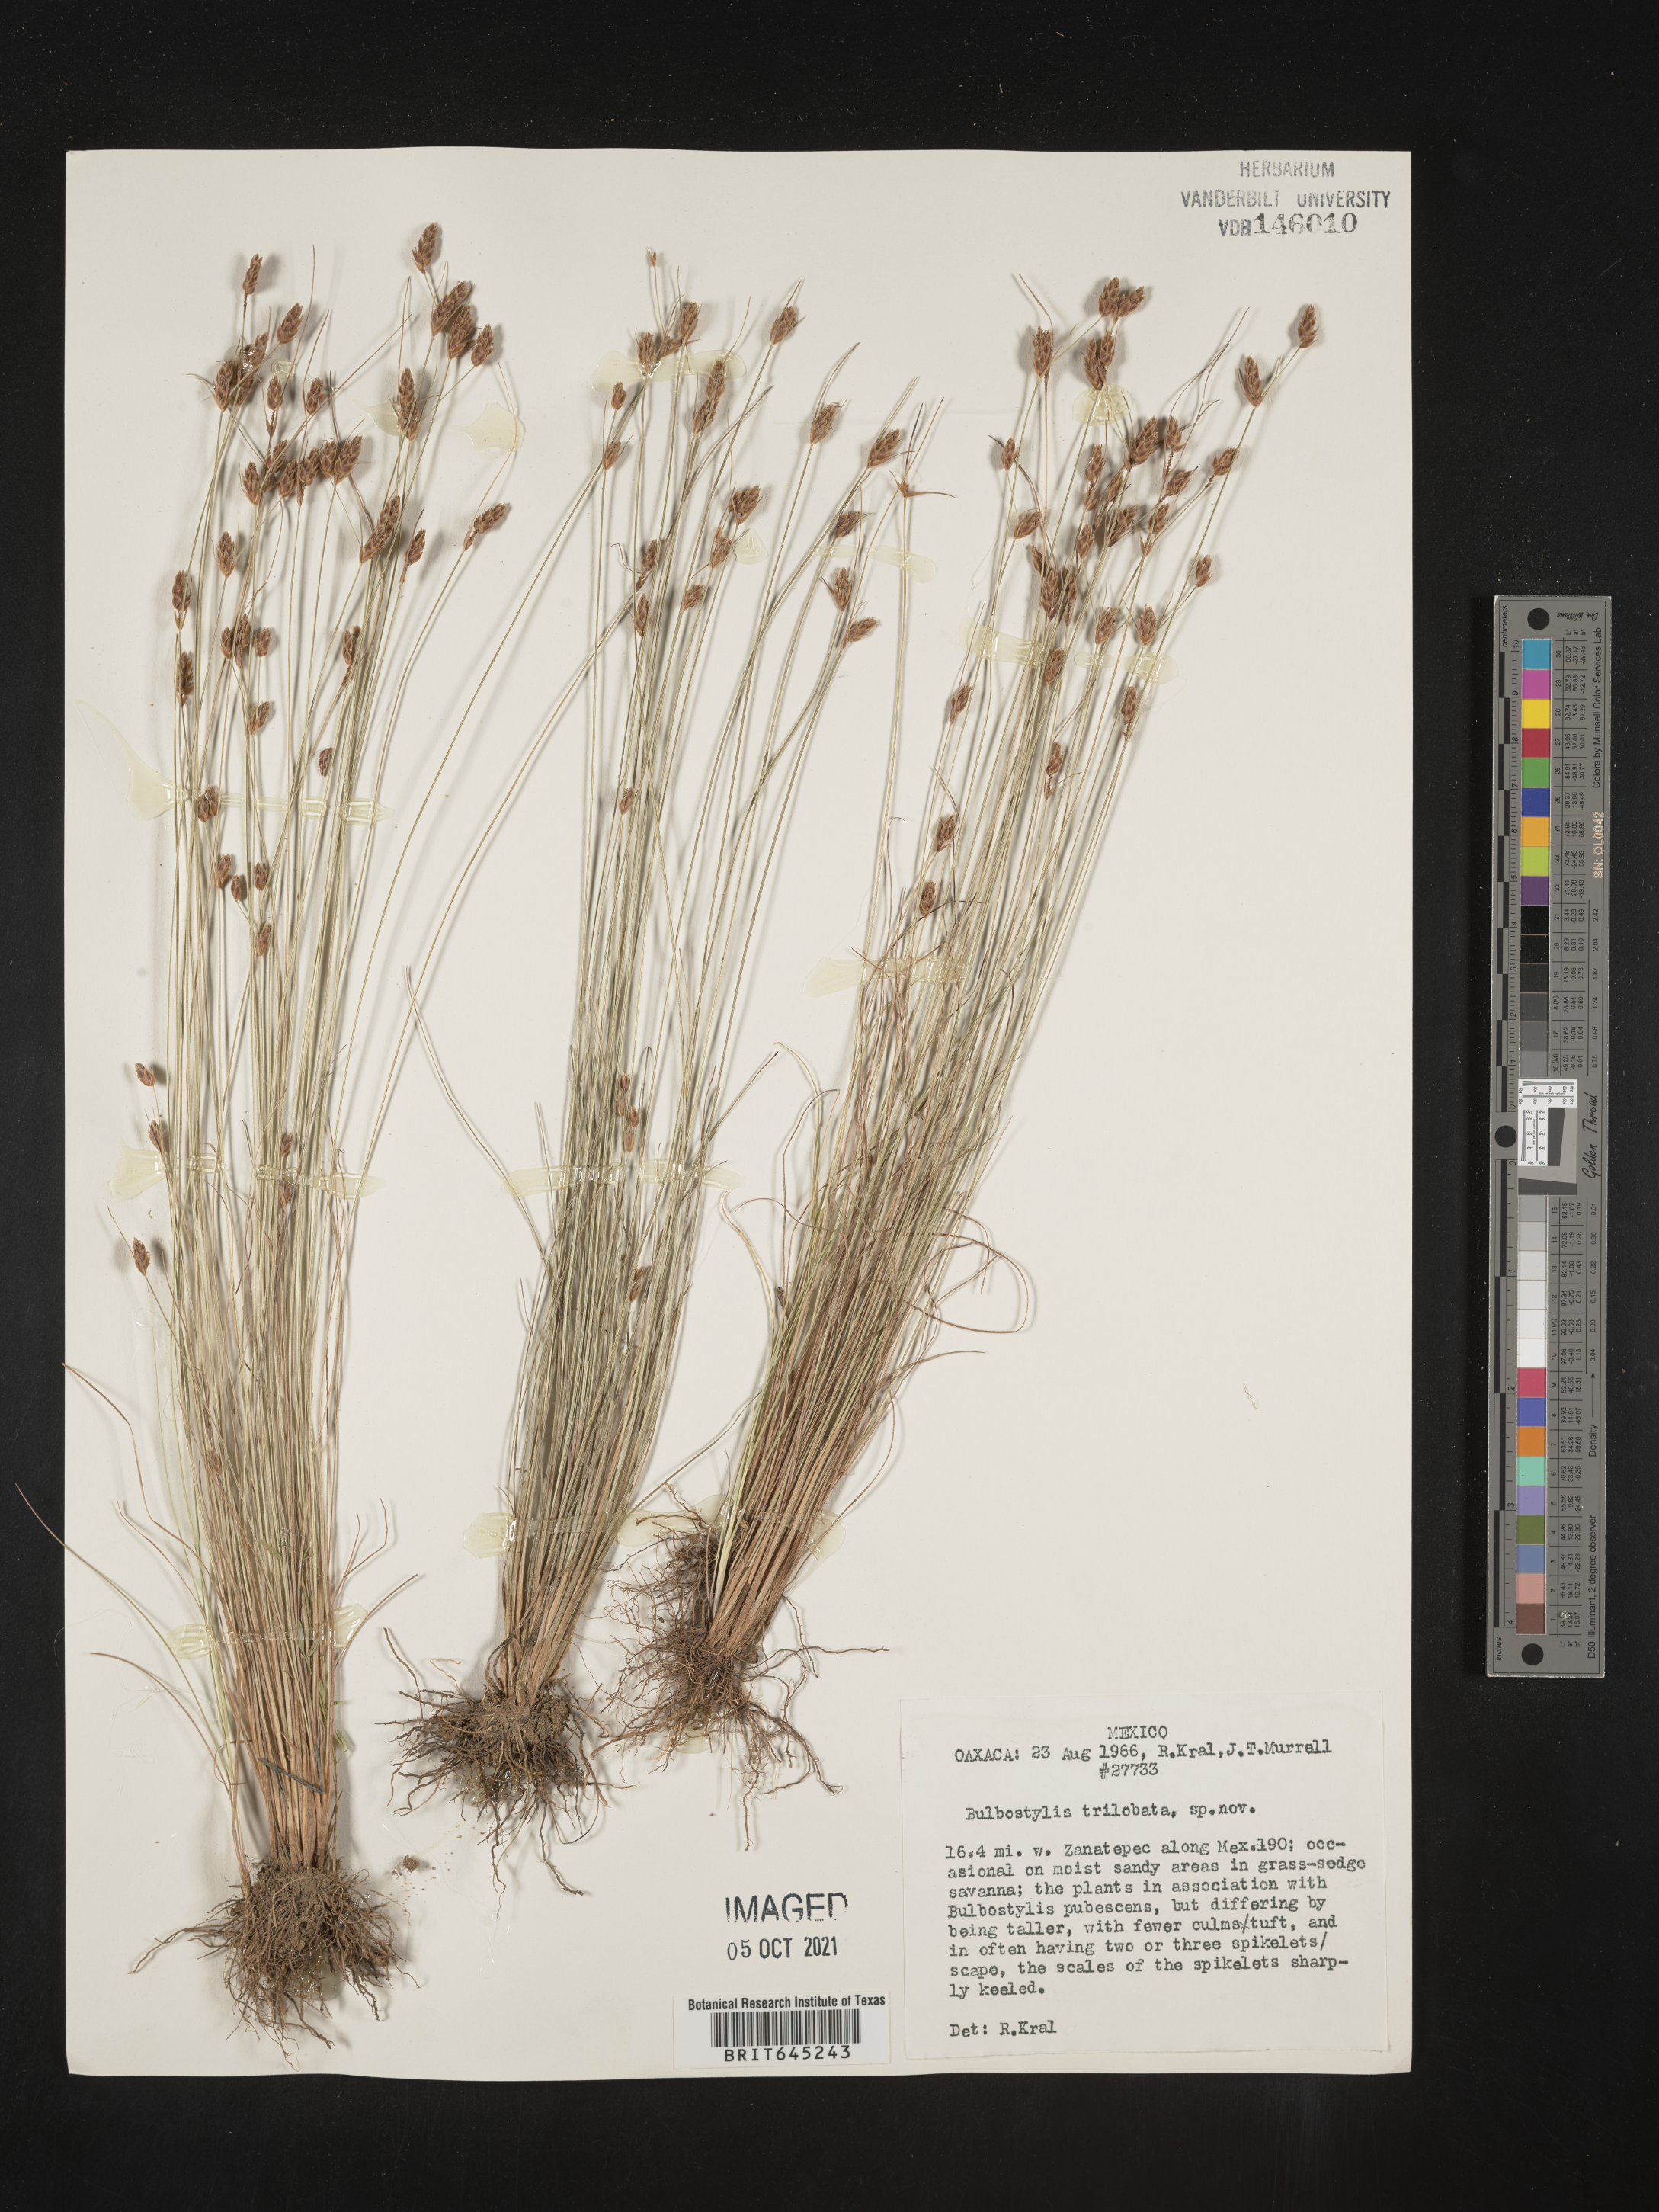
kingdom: Plantae
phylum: Tracheophyta
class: Liliopsida
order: Poales
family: Cyperaceae
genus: Bulbostylis
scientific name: Bulbostylis trilobata
